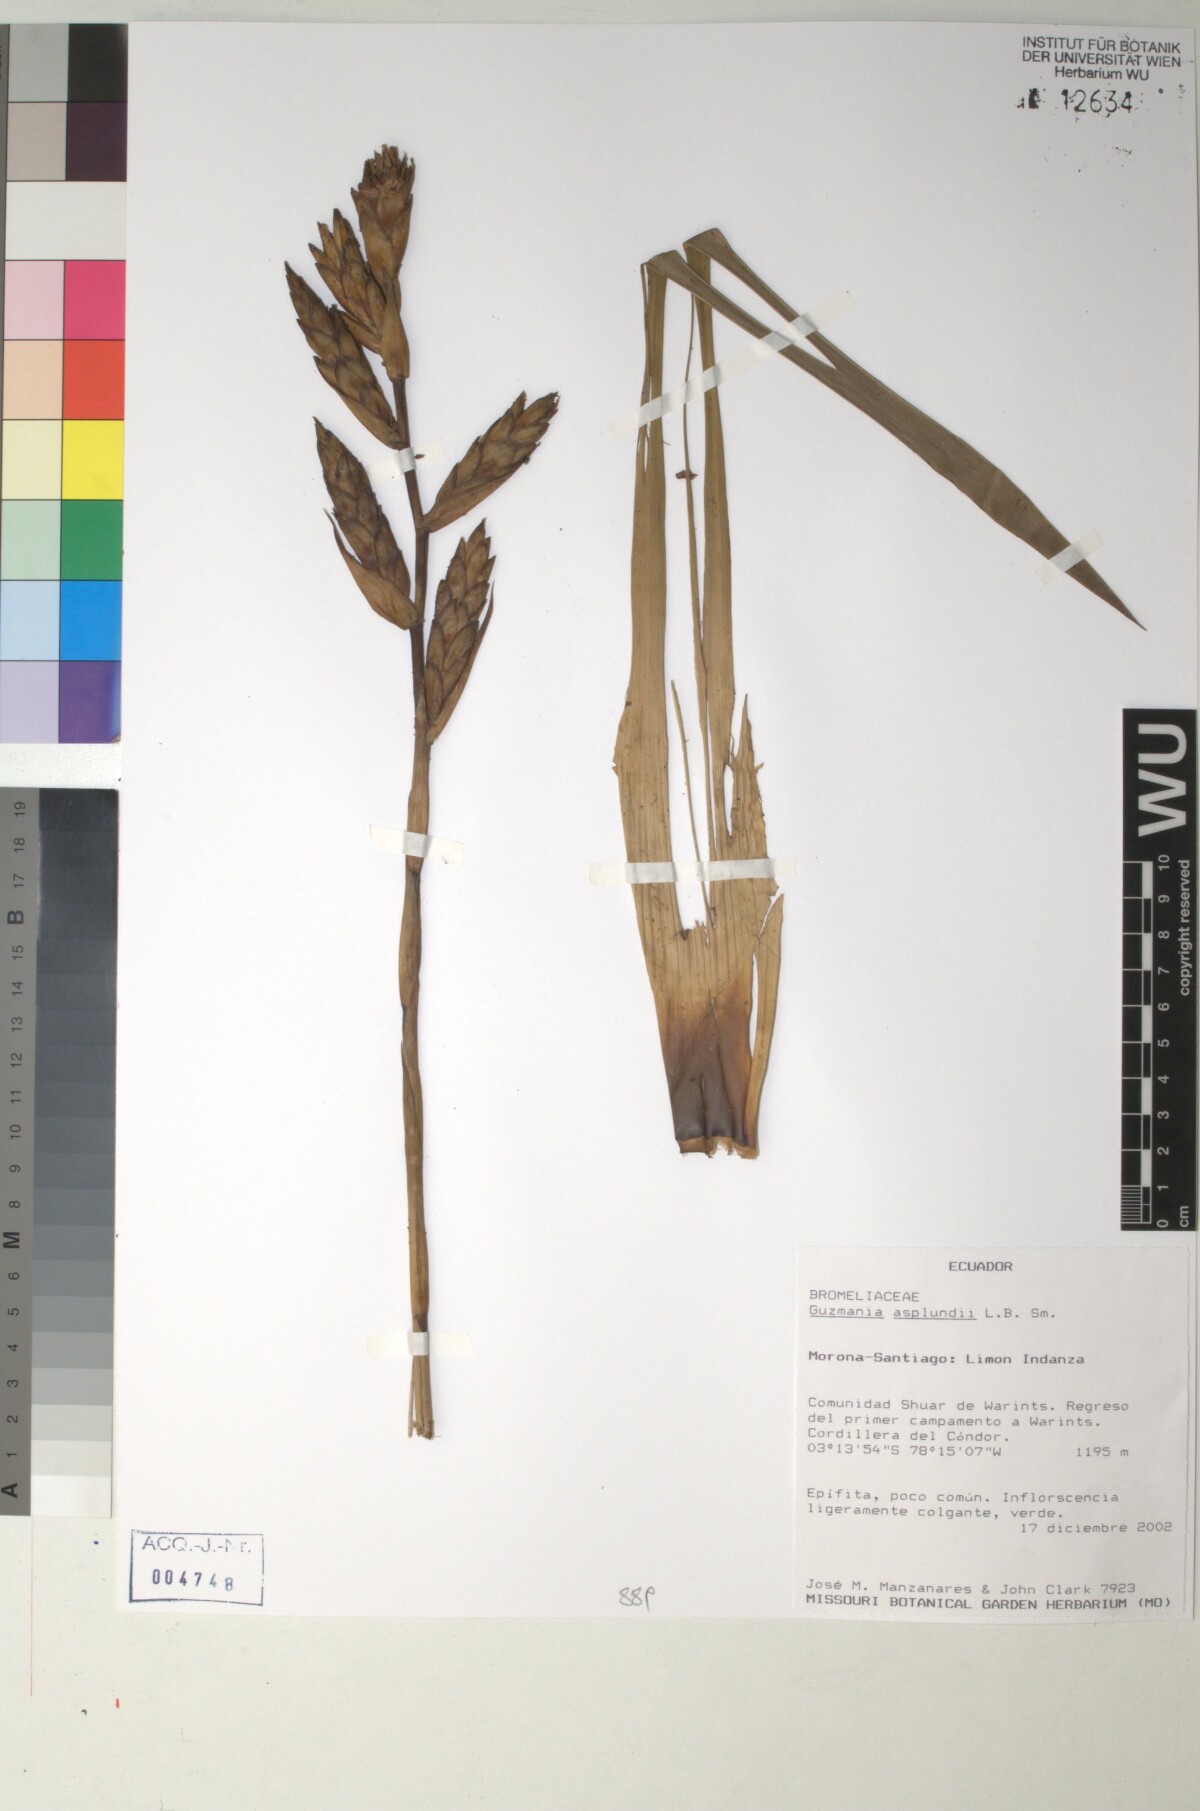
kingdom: Plantae
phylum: Tracheophyta
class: Liliopsida
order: Poales
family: Bromeliaceae
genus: Guzmania
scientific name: Guzmania asplundii
